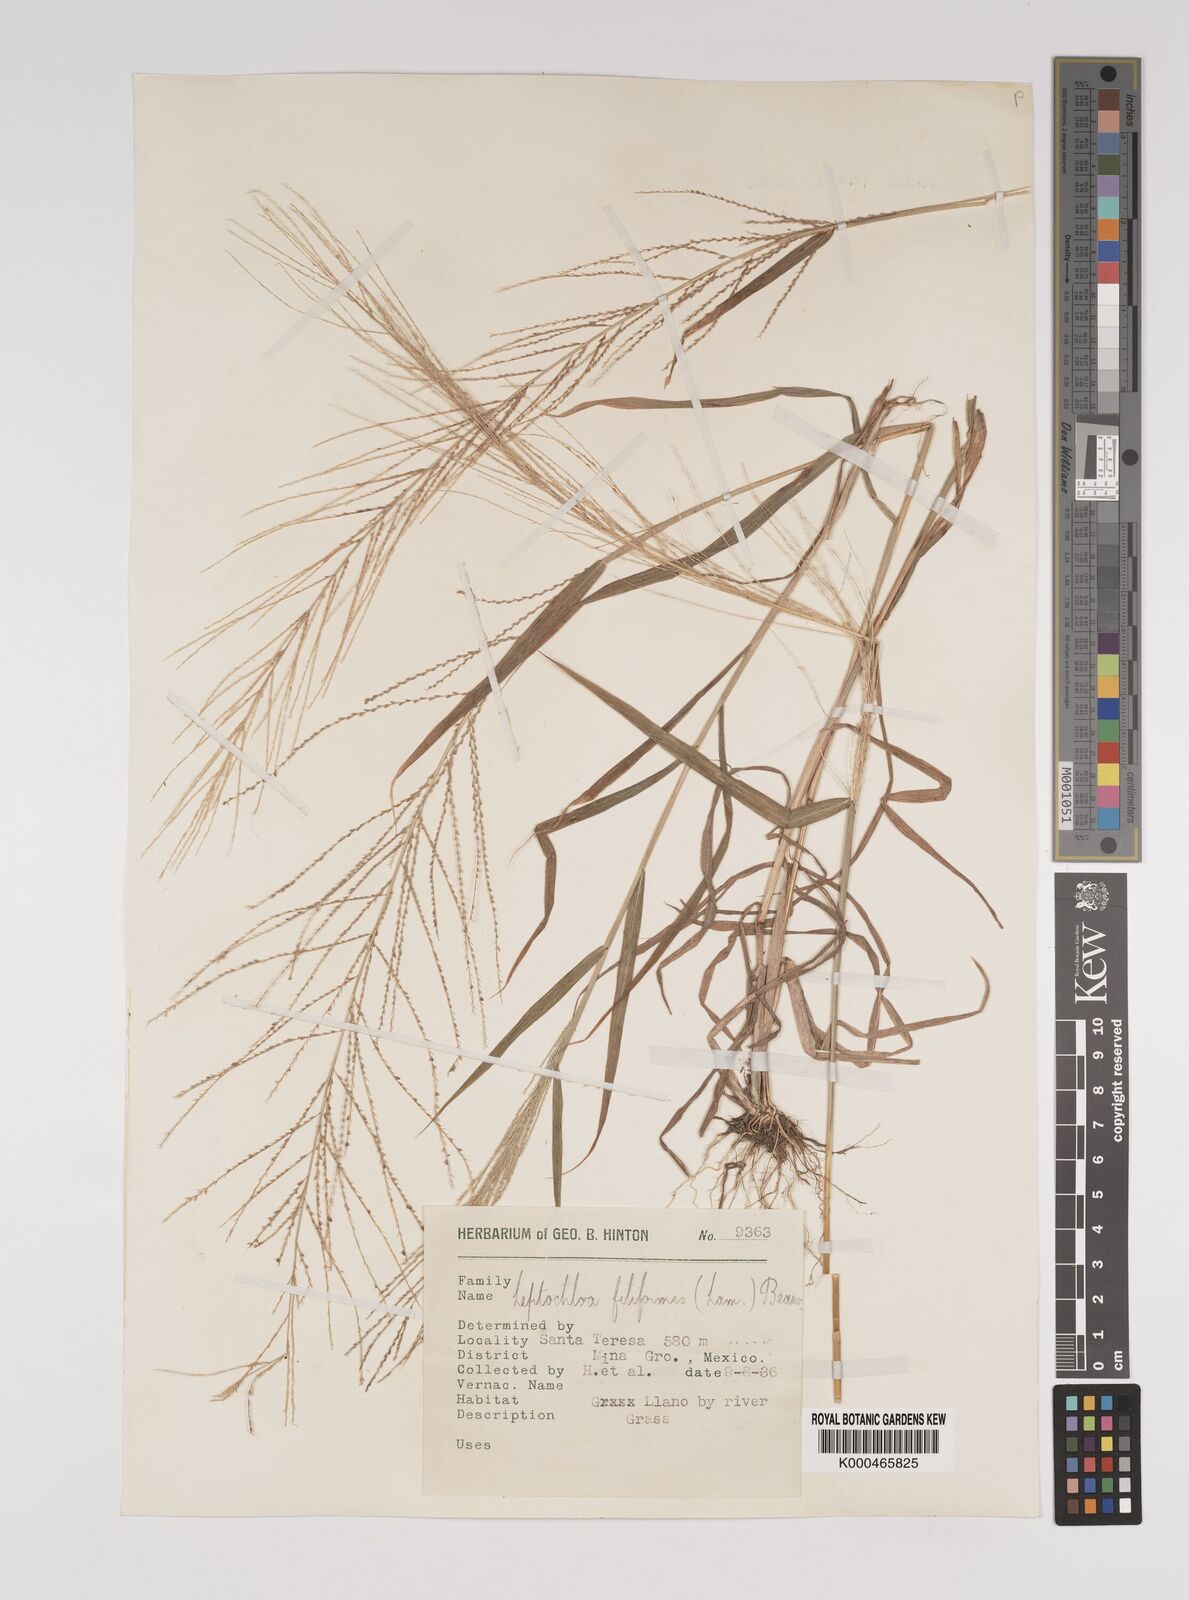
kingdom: Plantae
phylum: Tracheophyta
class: Liliopsida
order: Poales
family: Poaceae
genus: Leptochloa
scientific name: Leptochloa panicea
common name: Mucronate sprangletop
